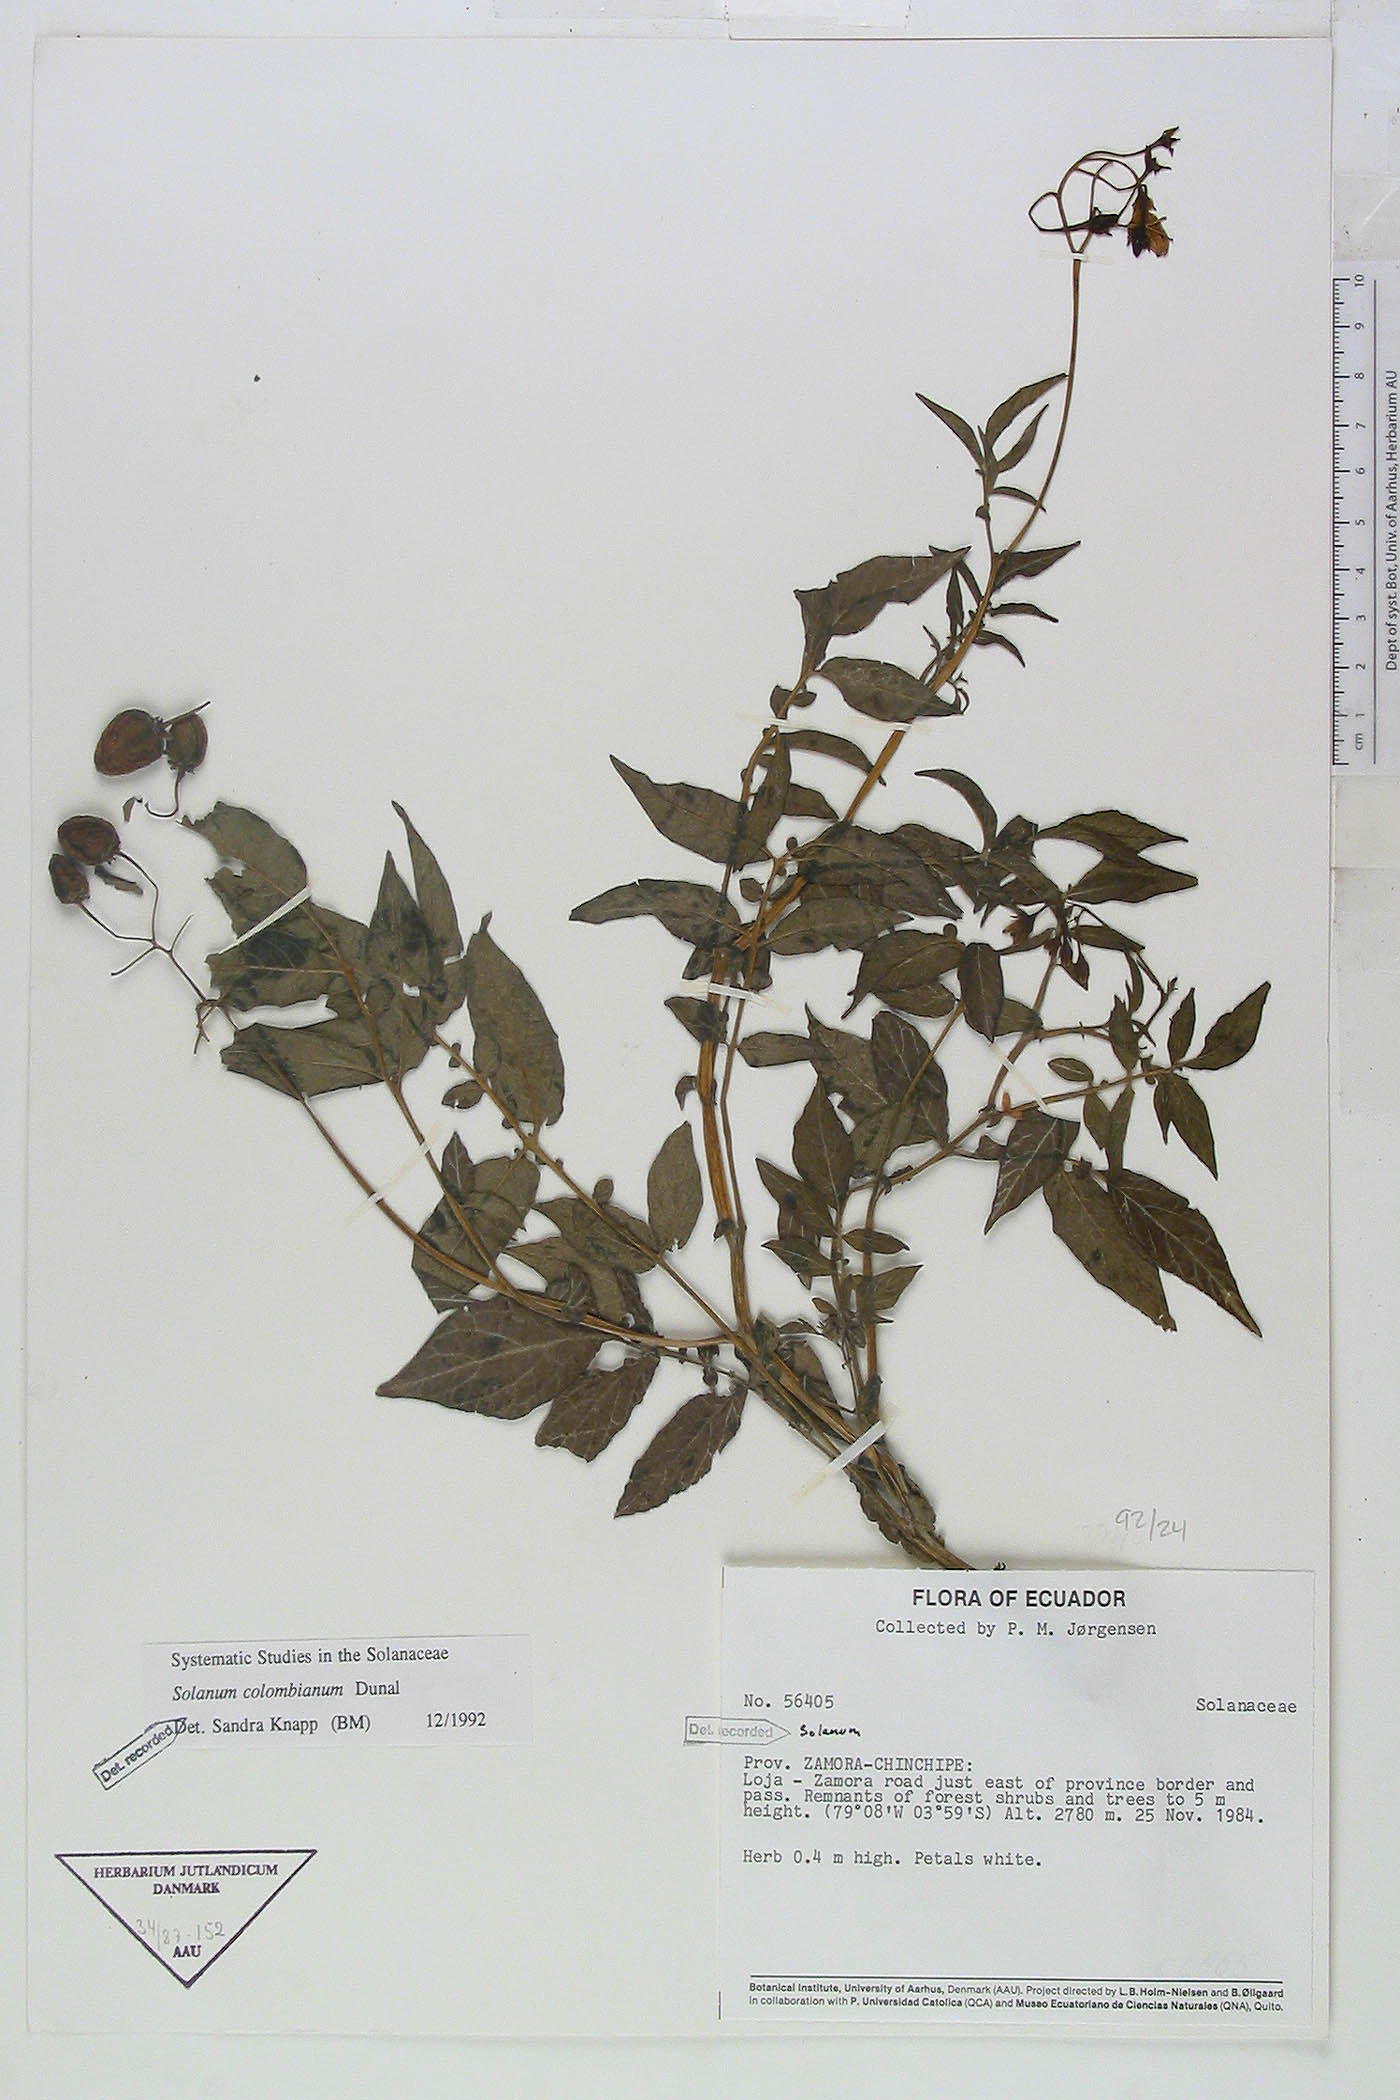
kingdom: Plantae
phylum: Tracheophyta
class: Magnoliopsida
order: Solanales
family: Solanaceae
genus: Solanum
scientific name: Solanum colombianum
